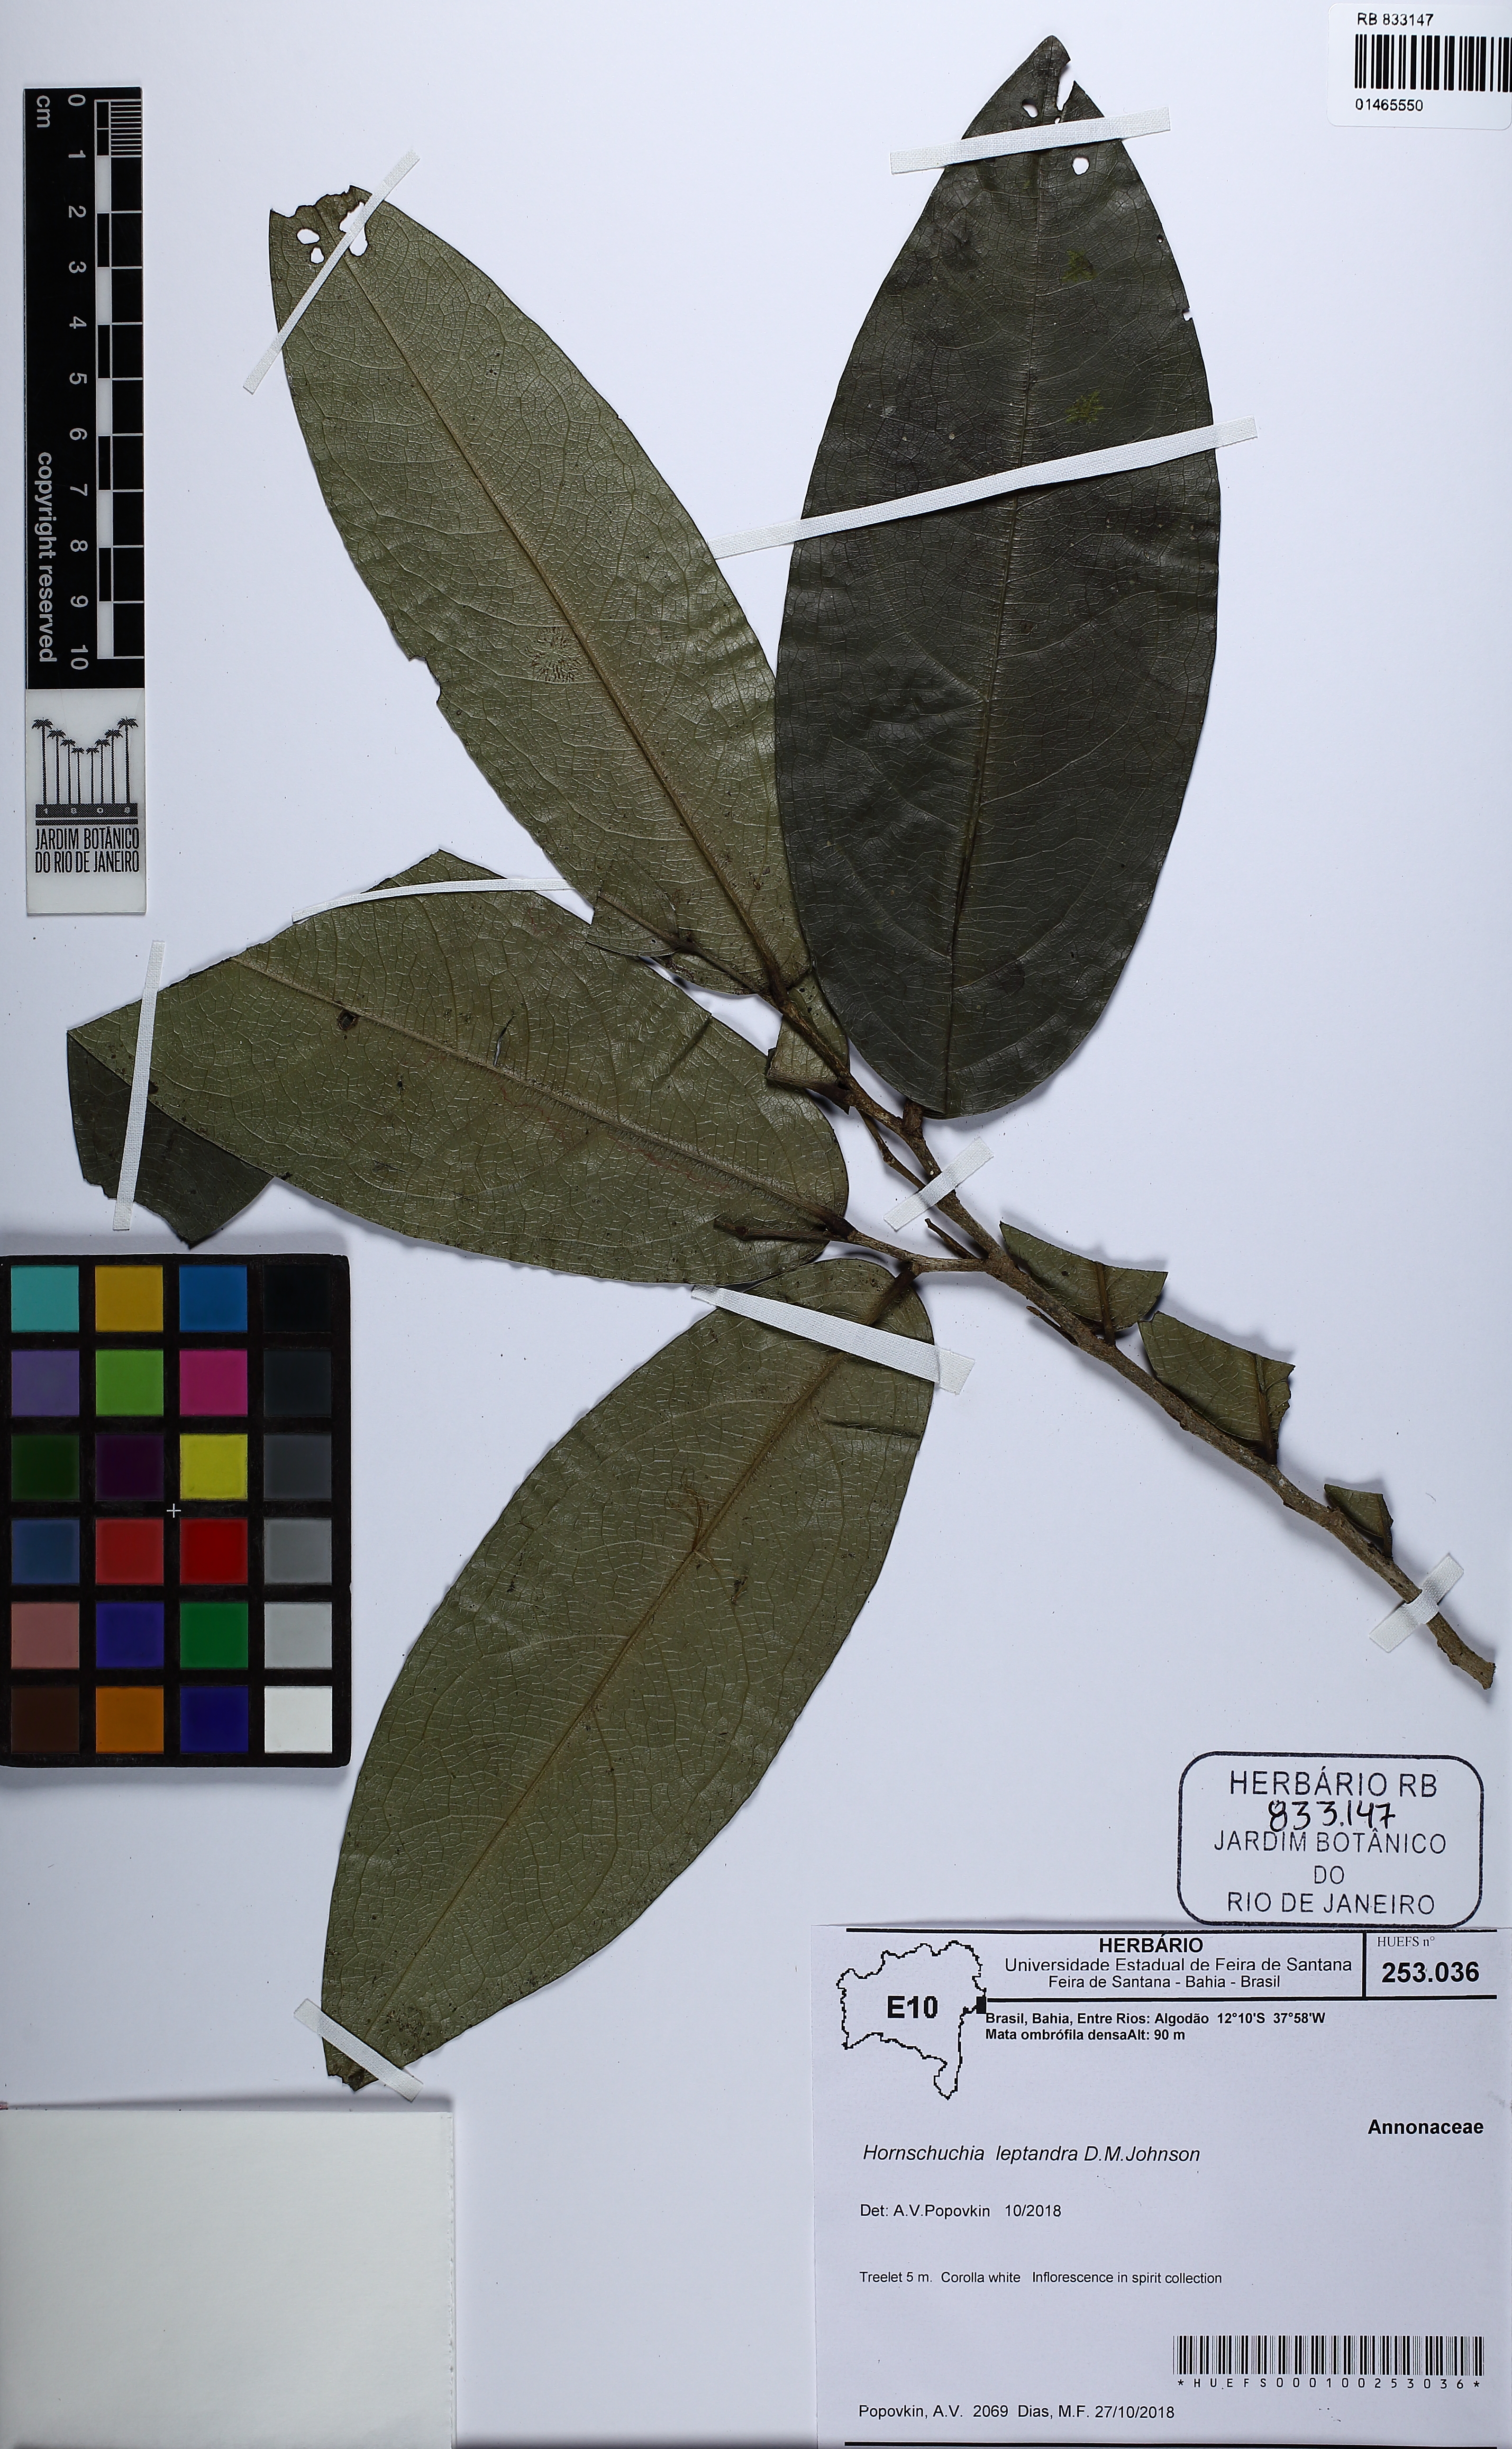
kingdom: Plantae
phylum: Tracheophyta
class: Magnoliopsida
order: Magnoliales
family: Annonaceae
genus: Hornschuchia
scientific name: Hornschuchia leptandra
